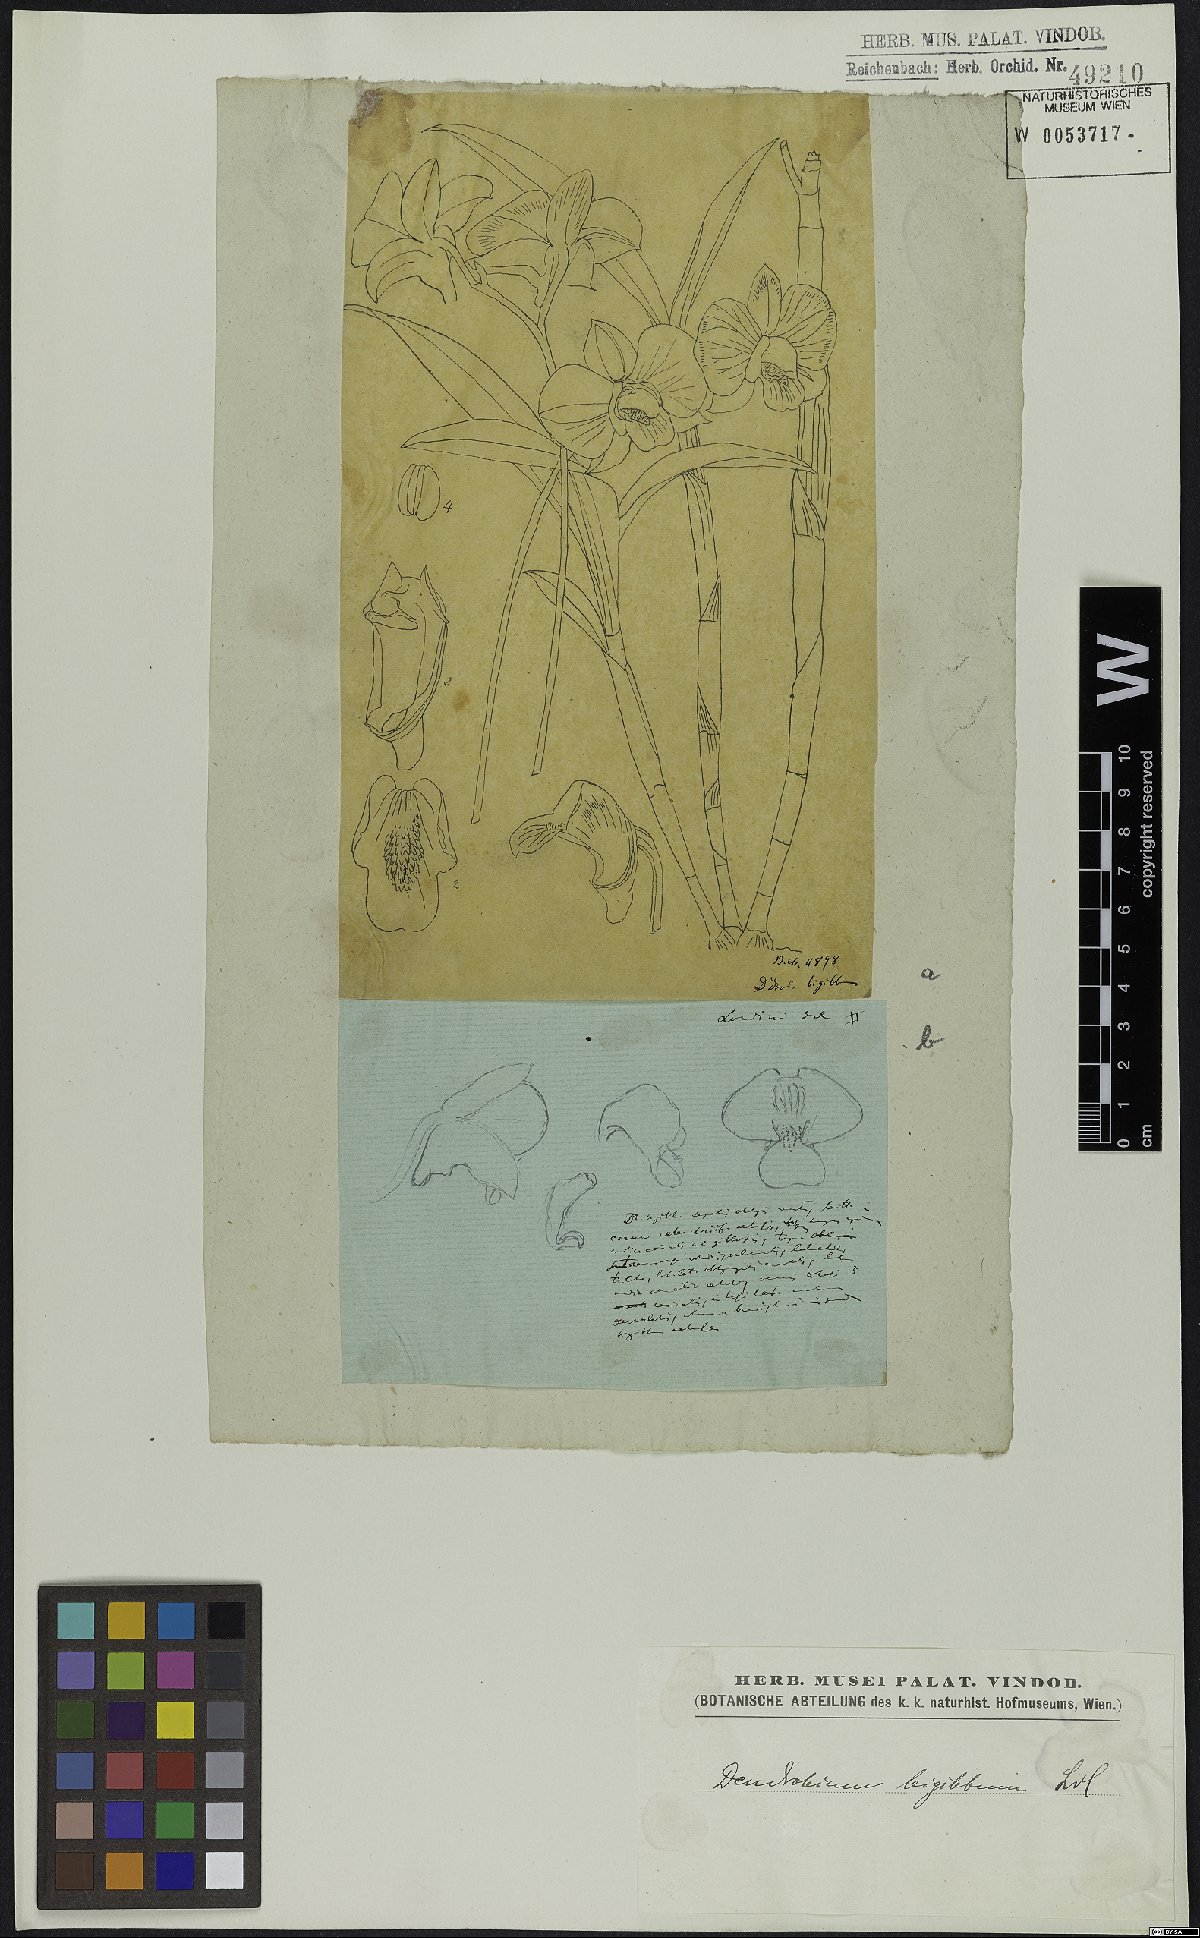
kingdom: Plantae
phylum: Tracheophyta
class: Liliopsida
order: Asparagales
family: Orchidaceae
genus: Dendrobium
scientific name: Dendrobium bigibbum
